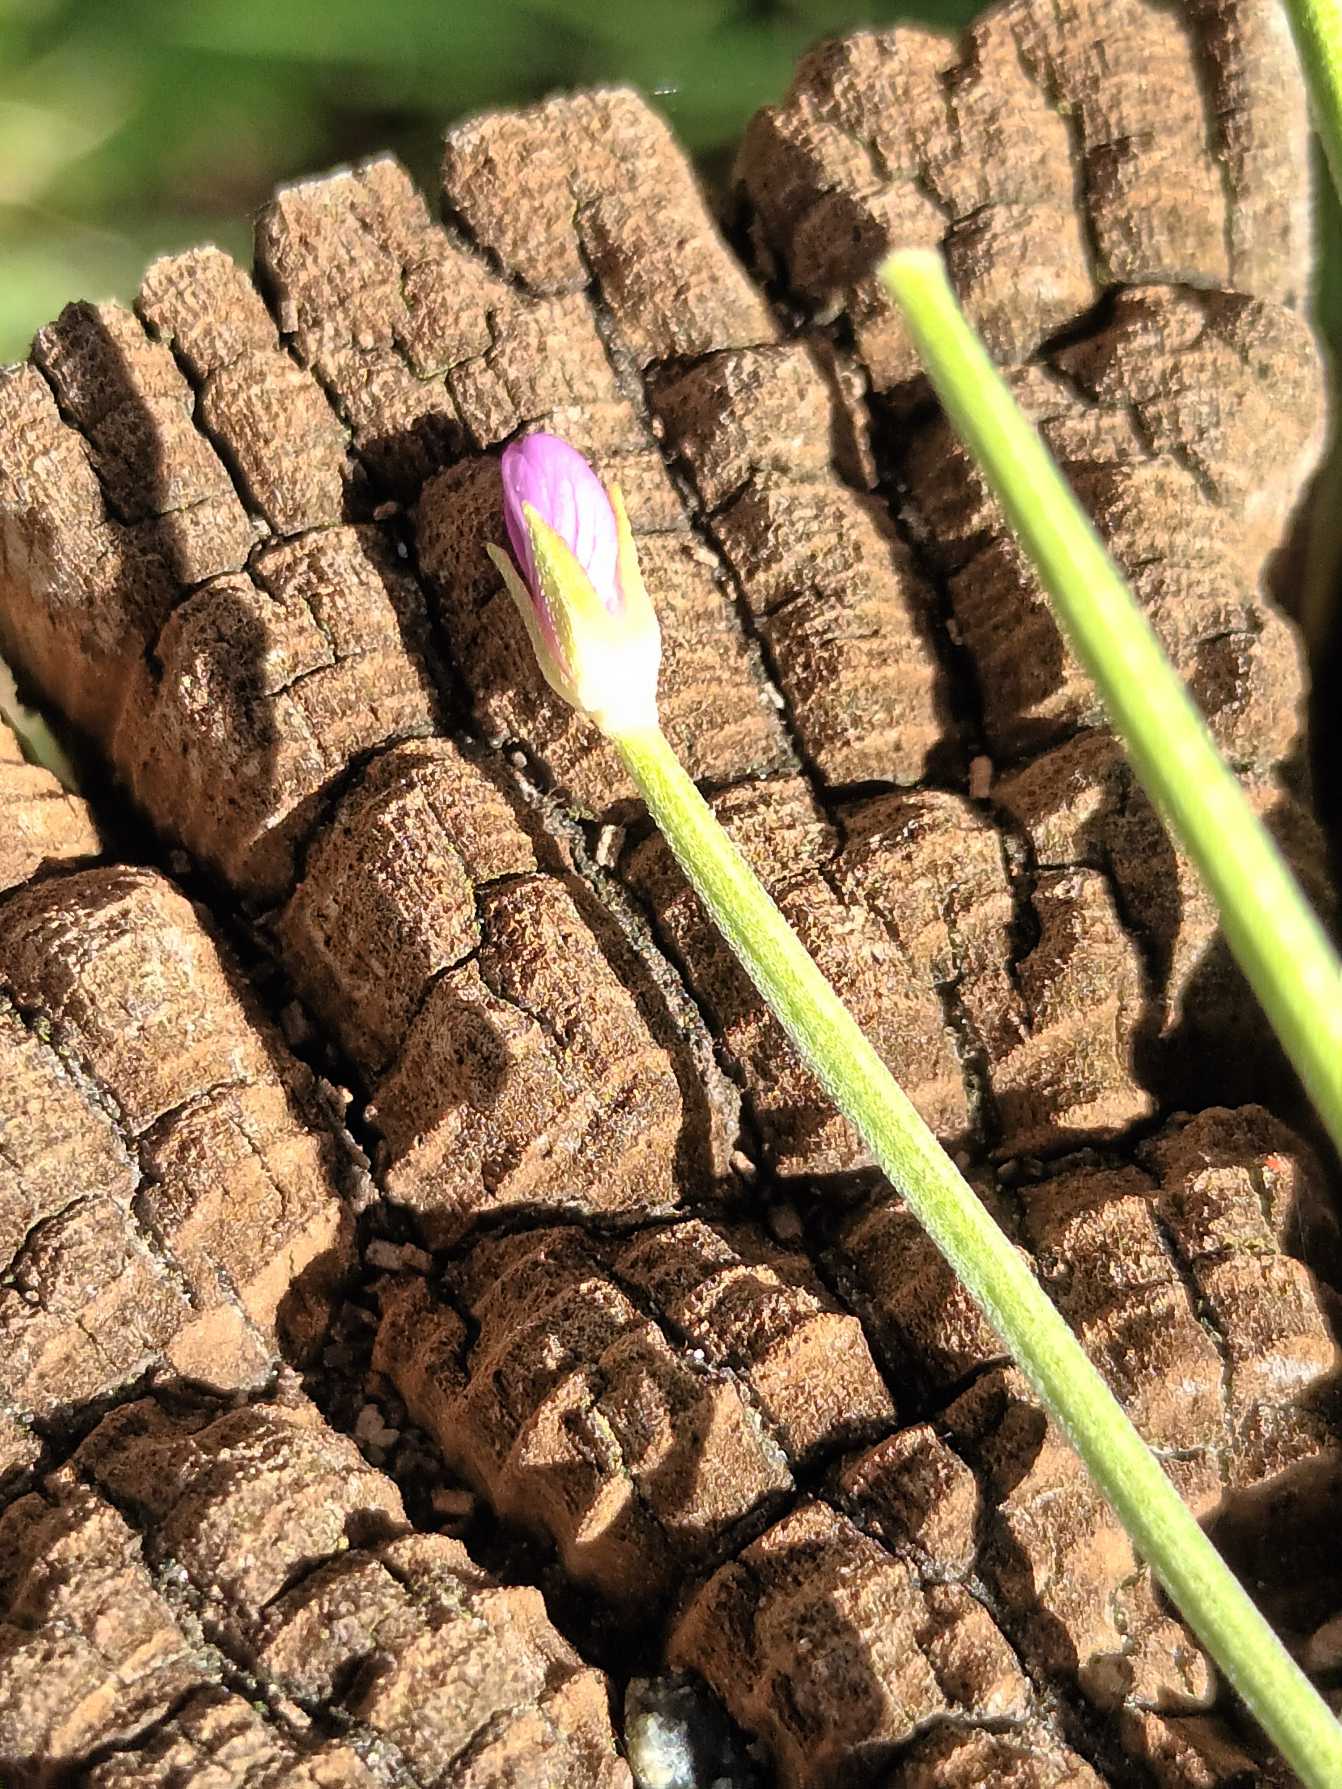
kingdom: Plantae
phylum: Tracheophyta
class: Magnoliopsida
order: Myrtales
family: Onagraceae
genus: Epilobium
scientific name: Epilobium obscurum
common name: Ris-dueurt
